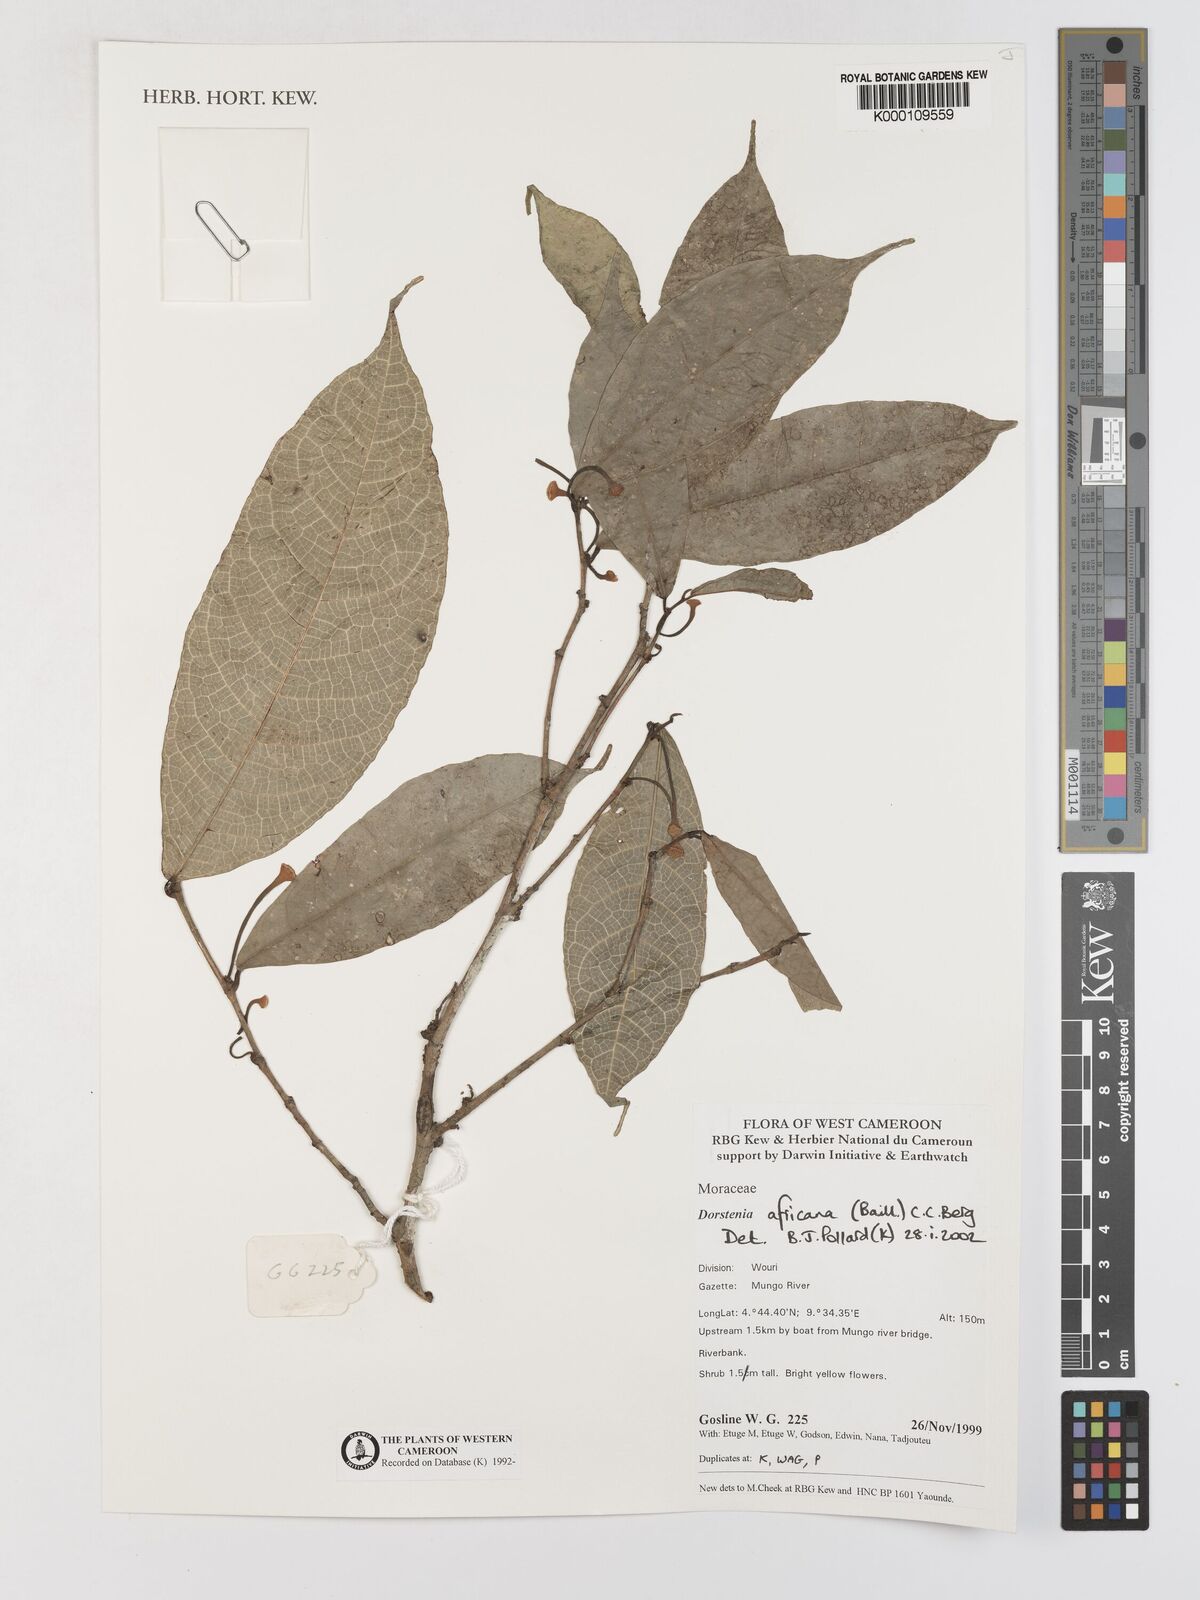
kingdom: Plantae
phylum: Tracheophyta
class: Magnoliopsida
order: Rosales
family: Moraceae
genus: Dorstenia
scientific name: Dorstenia africana
